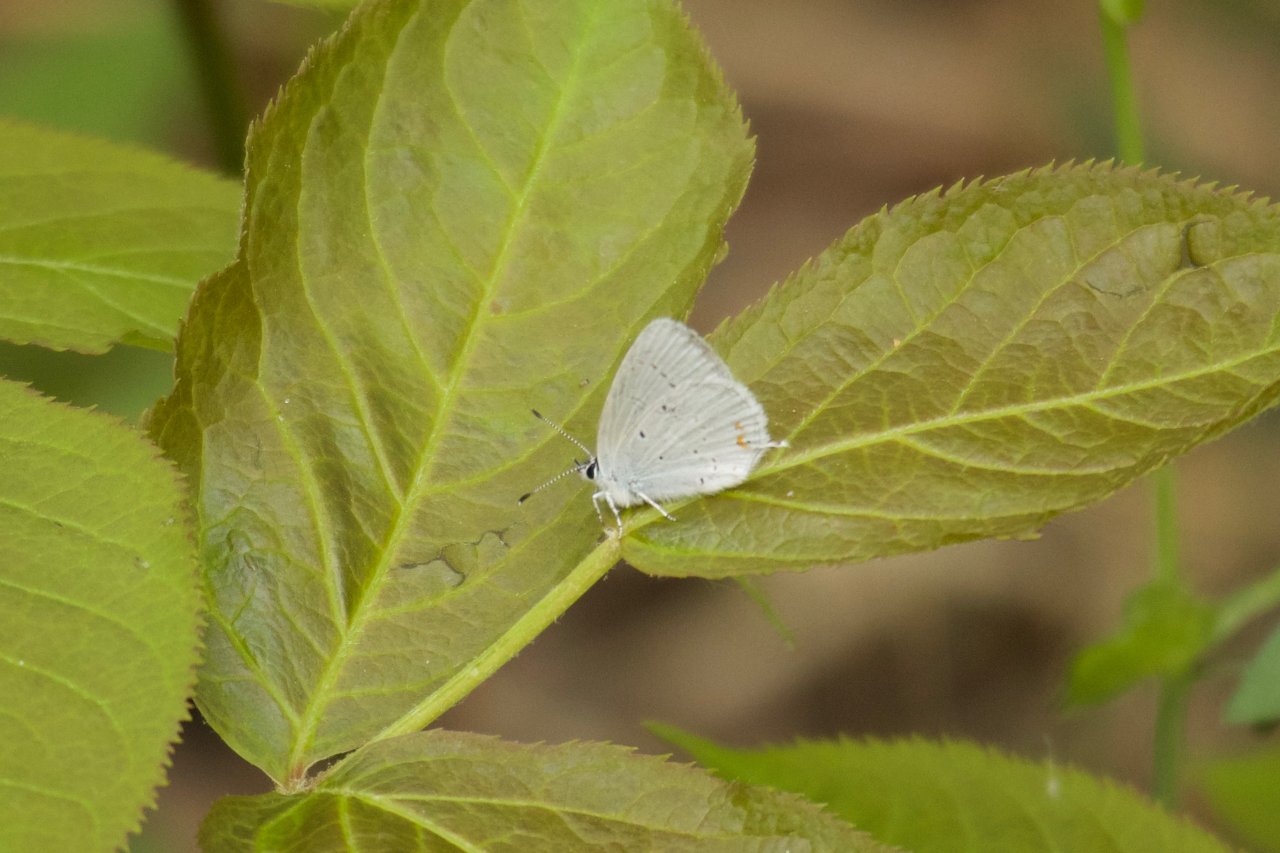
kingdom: Animalia
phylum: Arthropoda
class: Insecta
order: Lepidoptera
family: Lycaenidae
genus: Elkalyce
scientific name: Elkalyce amyntula
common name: Western Tailed-Blue
